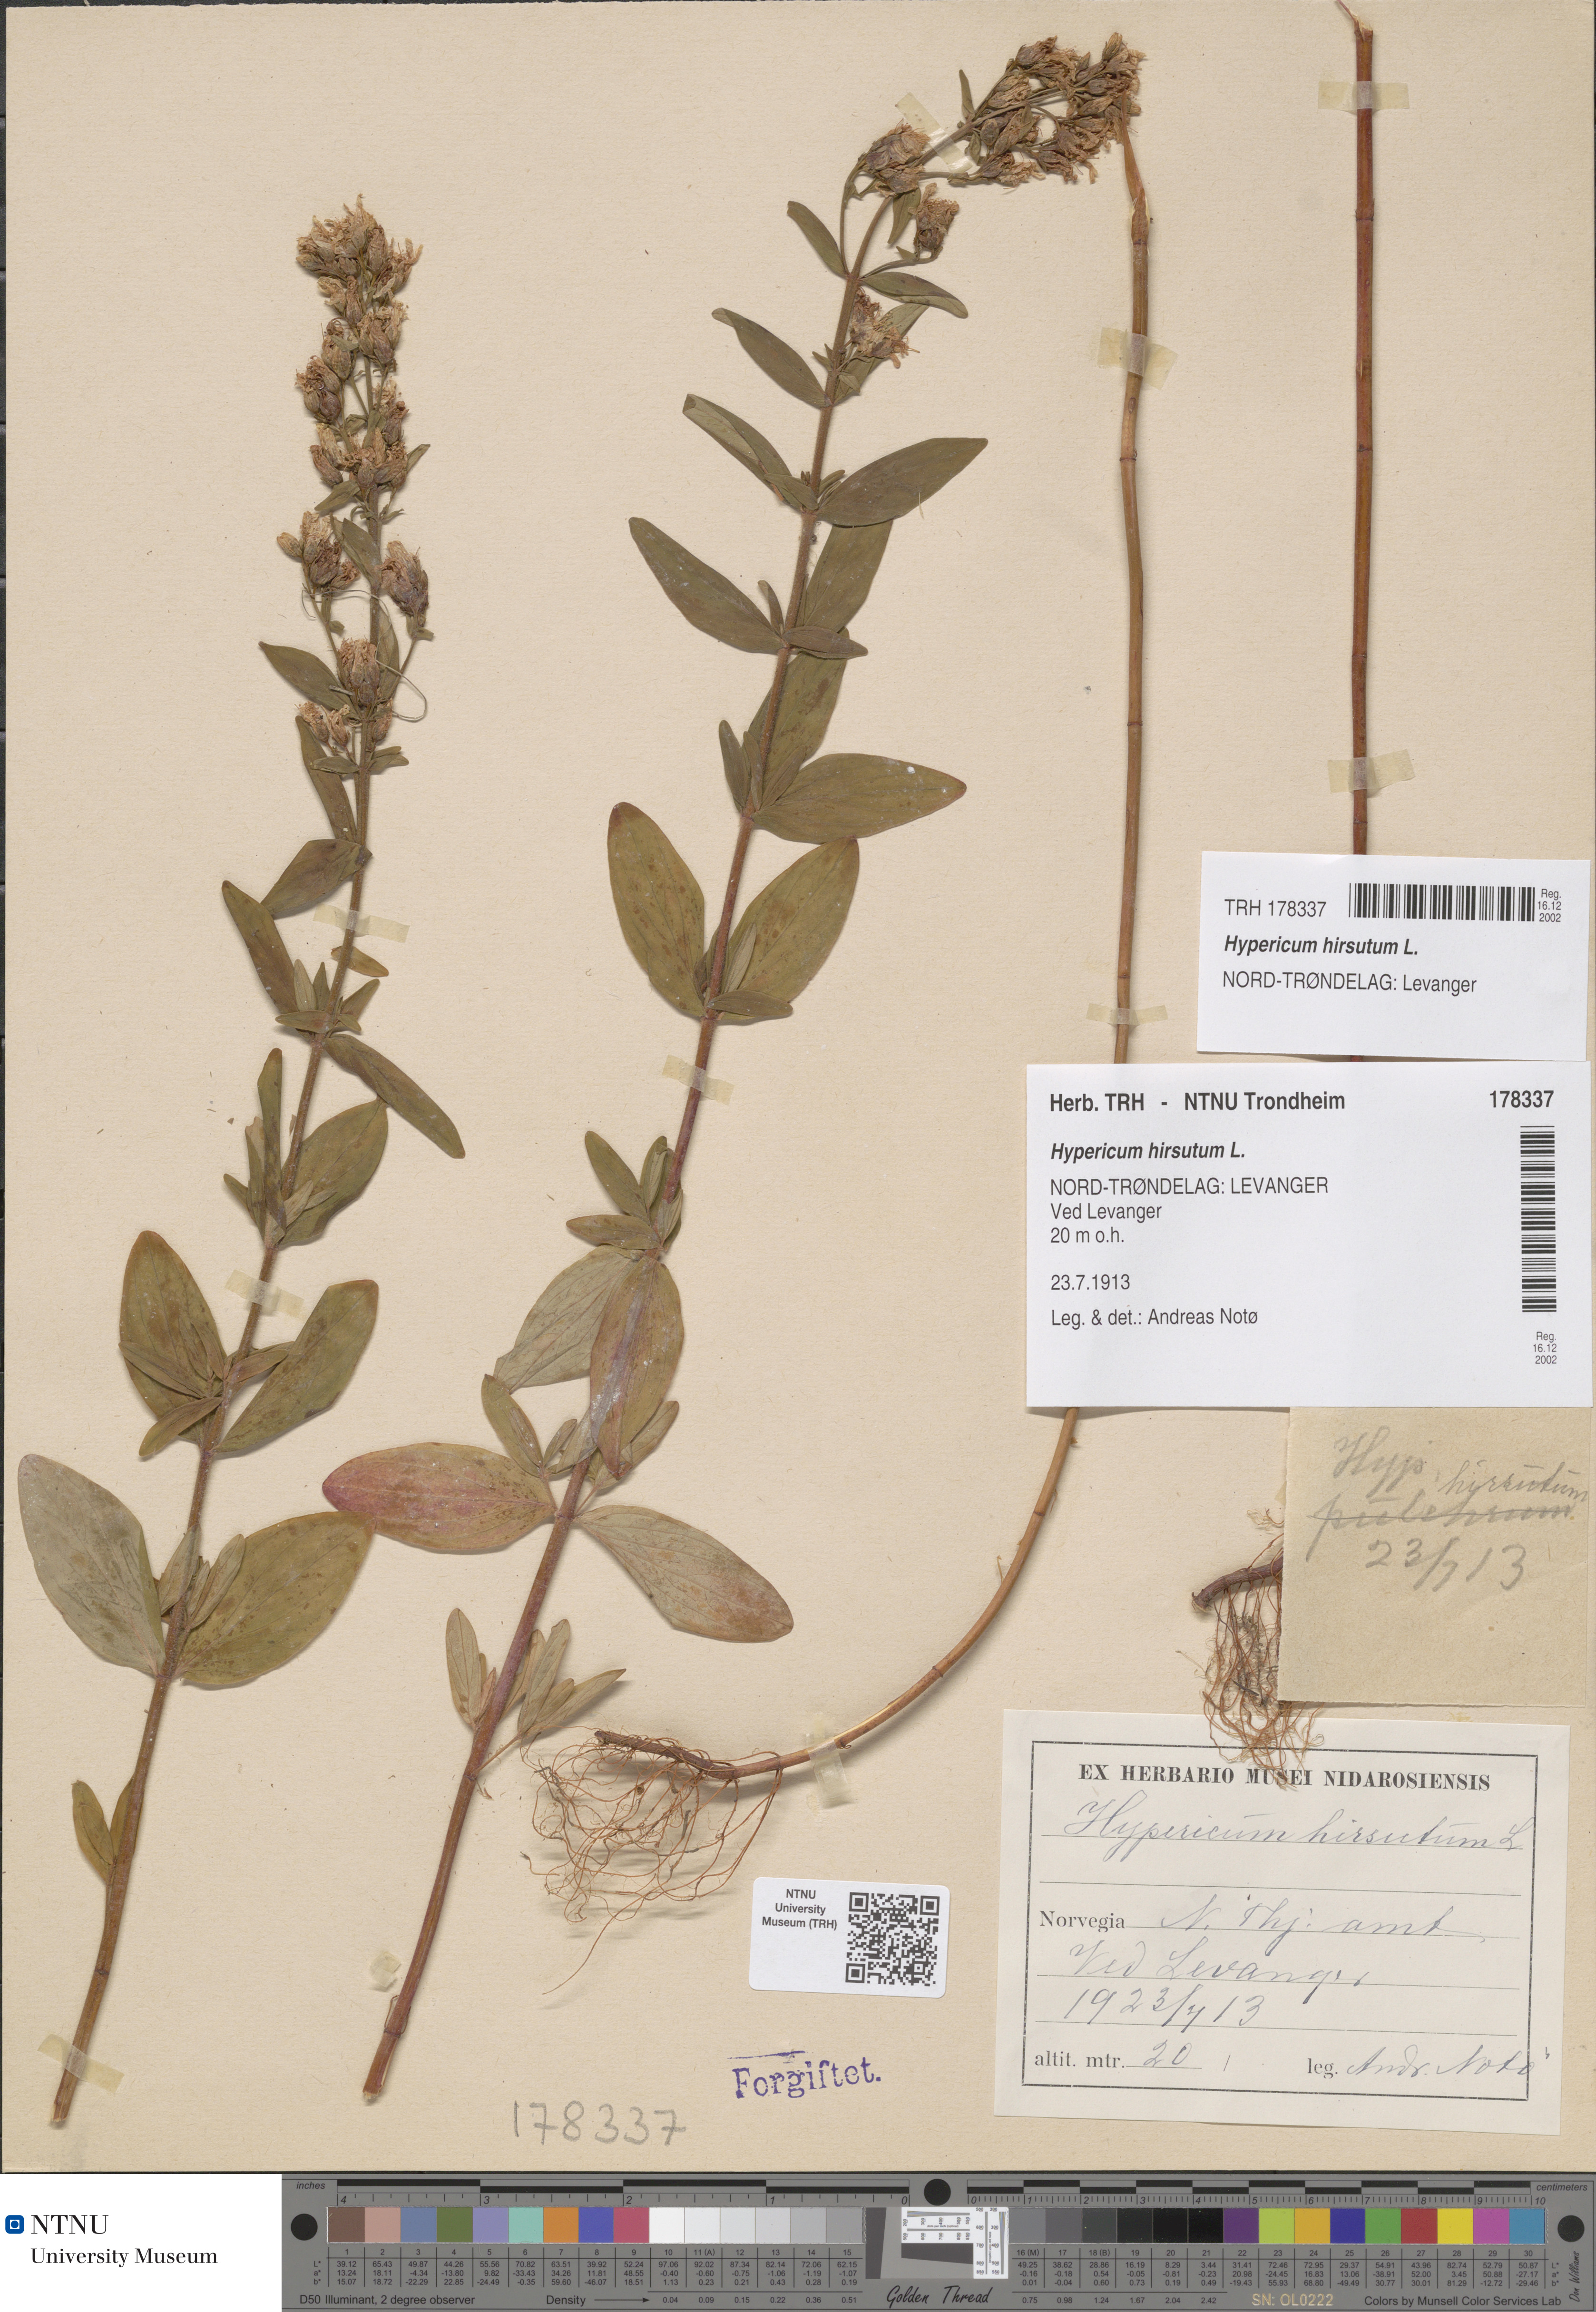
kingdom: Plantae
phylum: Tracheophyta
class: Magnoliopsida
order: Malpighiales
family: Hypericaceae
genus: Hypericum
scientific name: Hypericum hirsutum
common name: Hairy st. john's-wort
